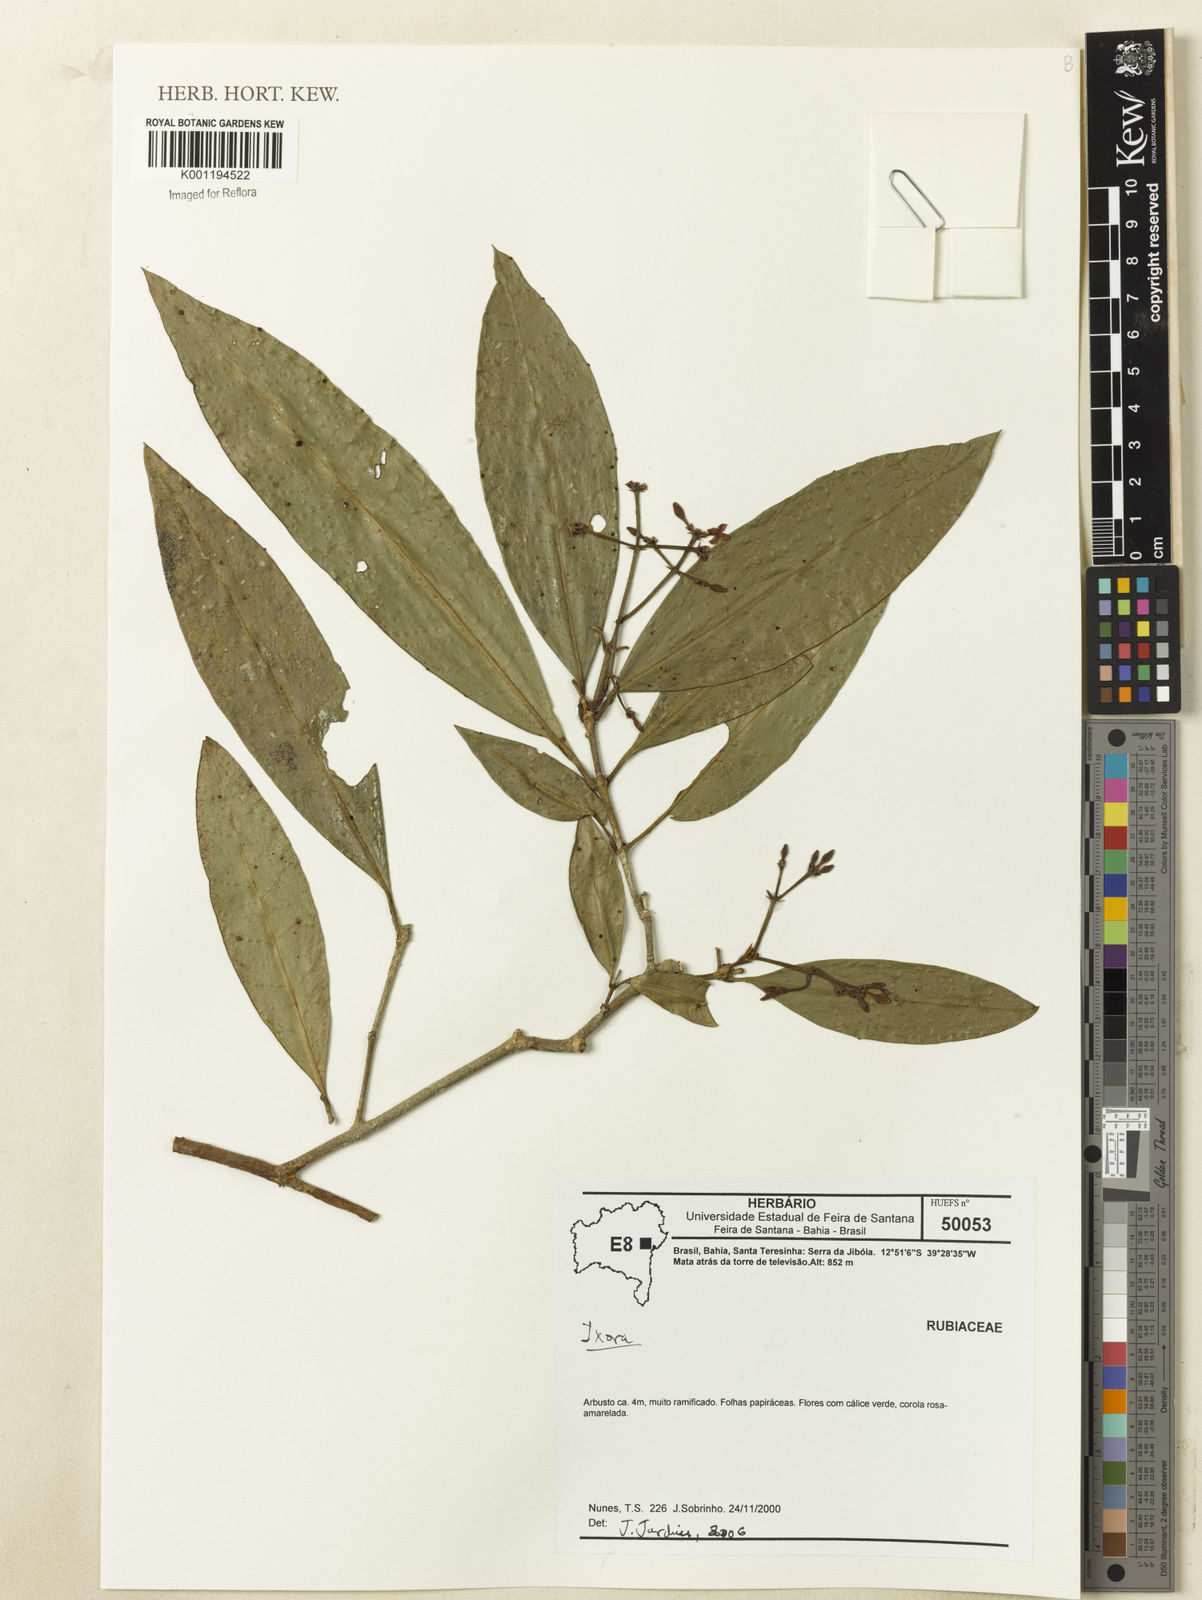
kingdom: Plantae
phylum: Tracheophyta
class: Magnoliopsida
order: Gentianales
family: Rubiaceae
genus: Ixora
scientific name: Ixora
